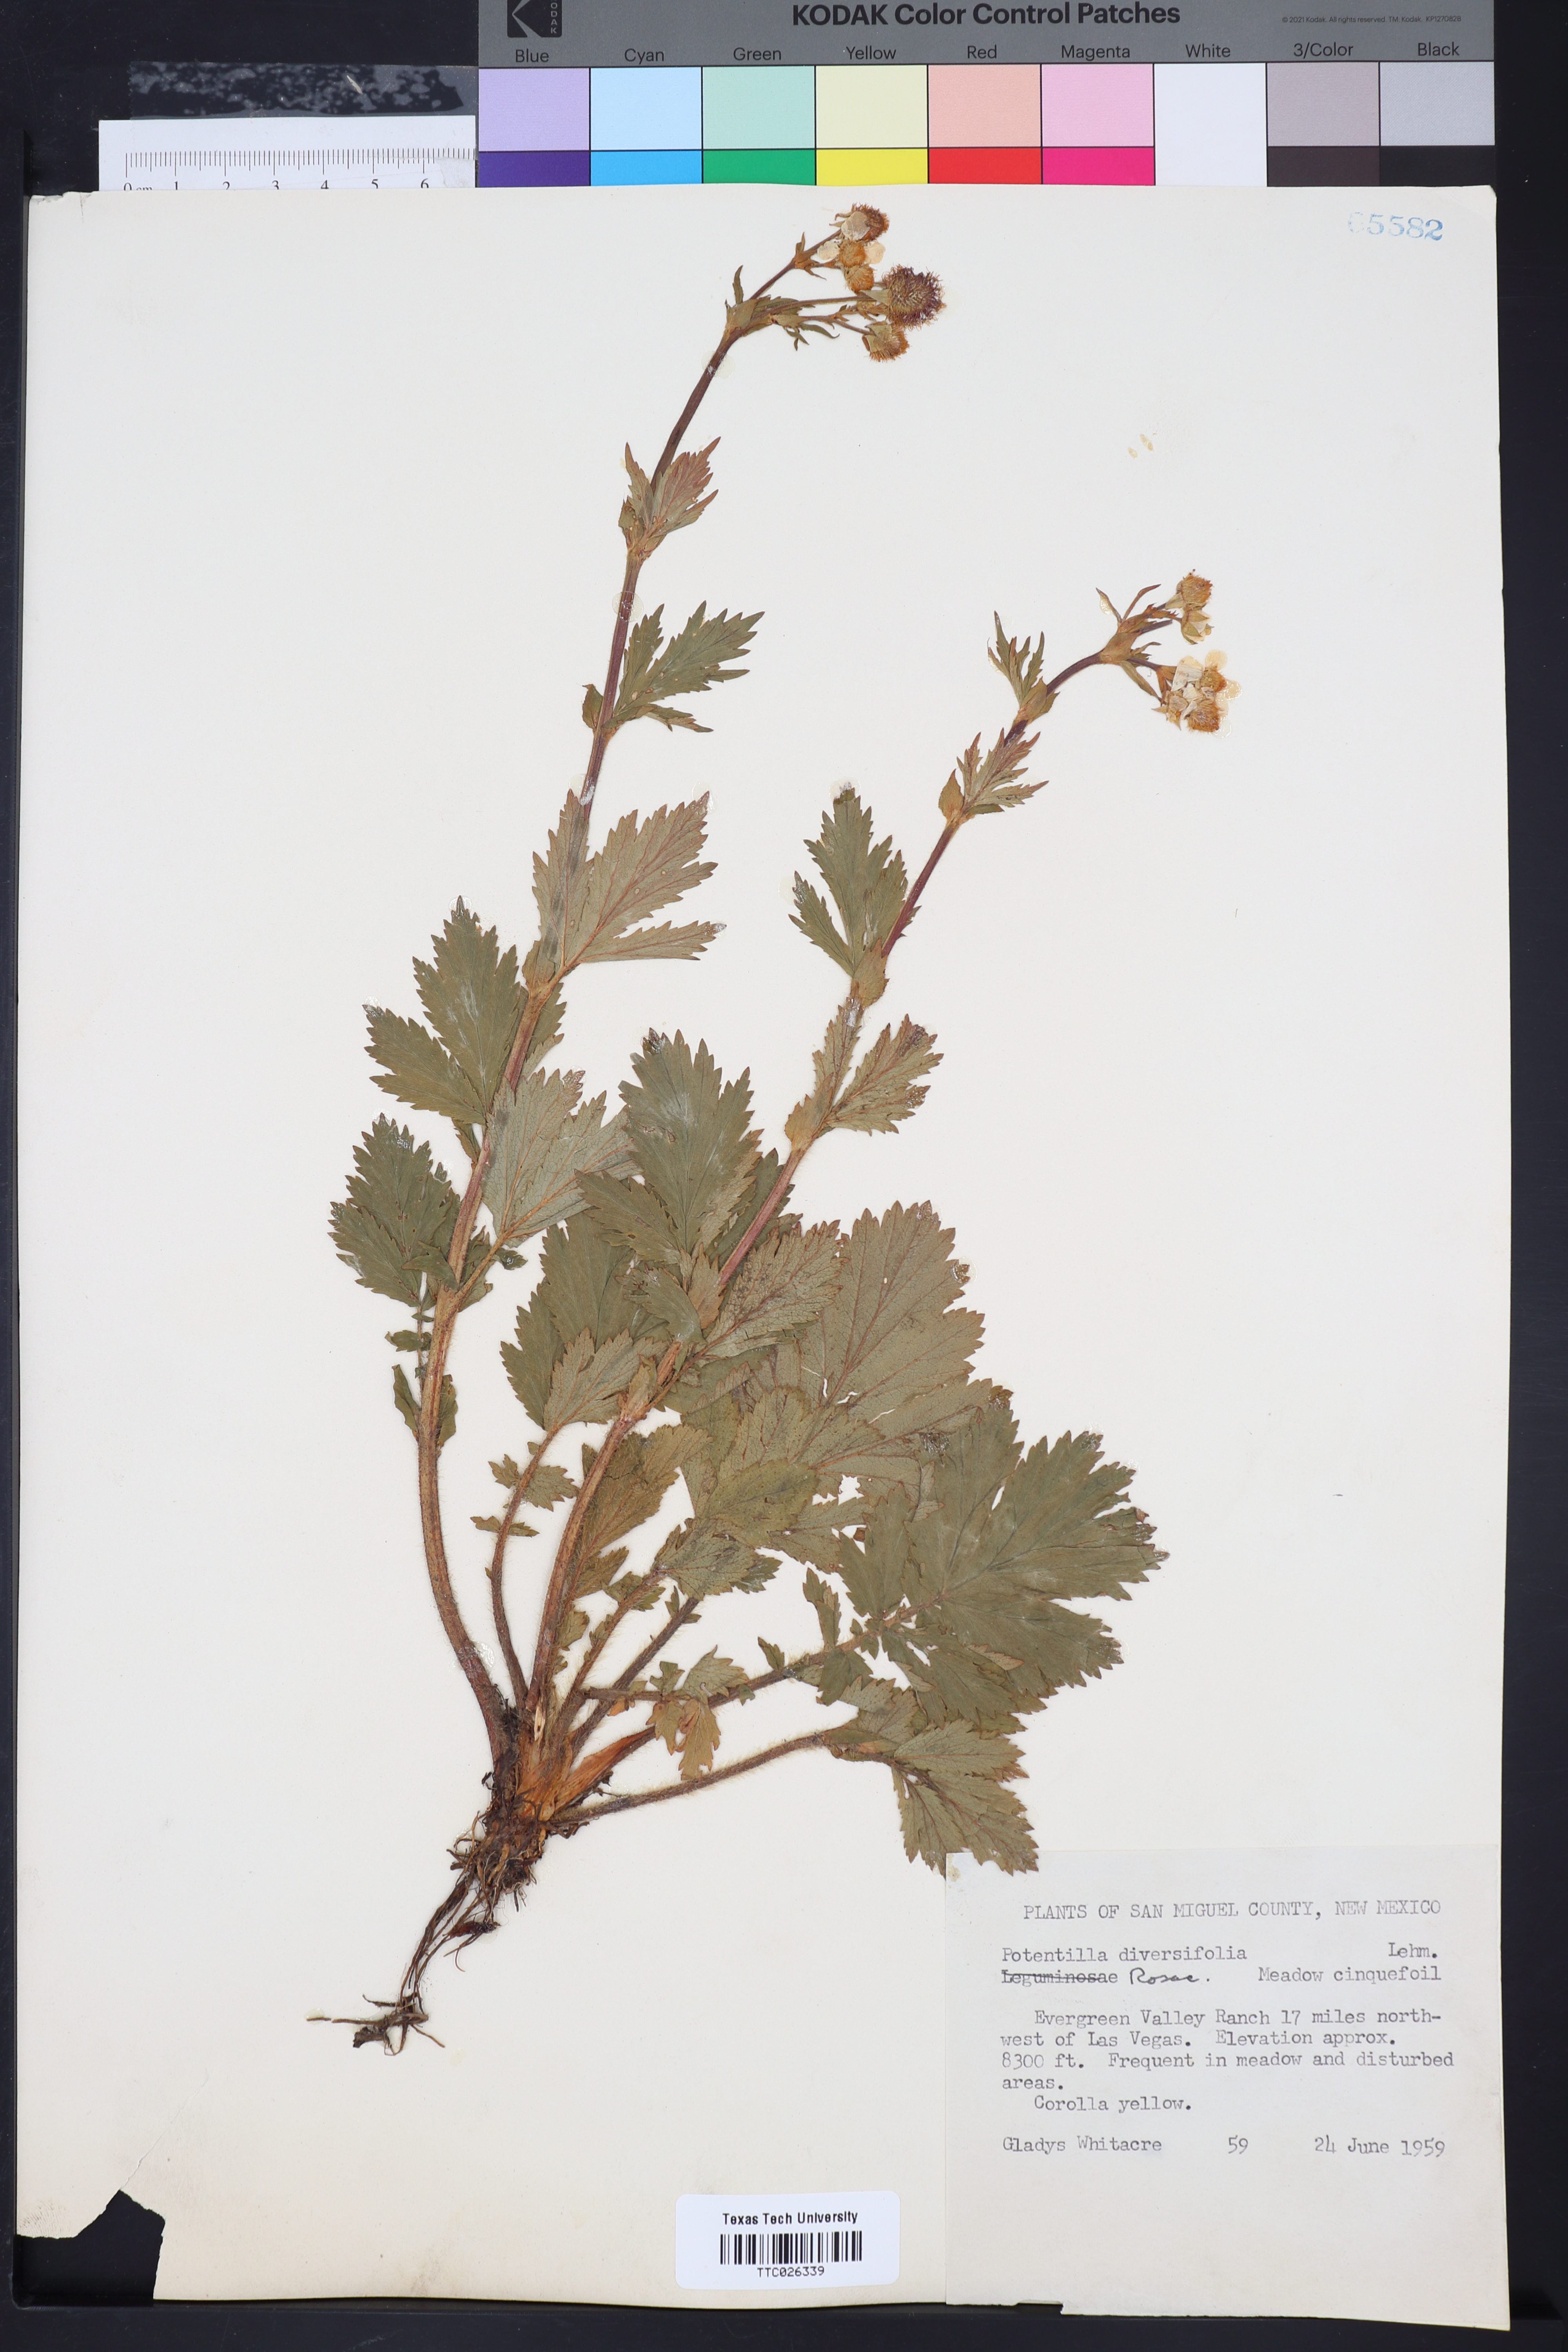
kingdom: Plantae
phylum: Tracheophyta
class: Magnoliopsida
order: Rosales
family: Rosaceae
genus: Potentilla
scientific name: Potentilla diversifolia
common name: Varileaf cinquefoil
